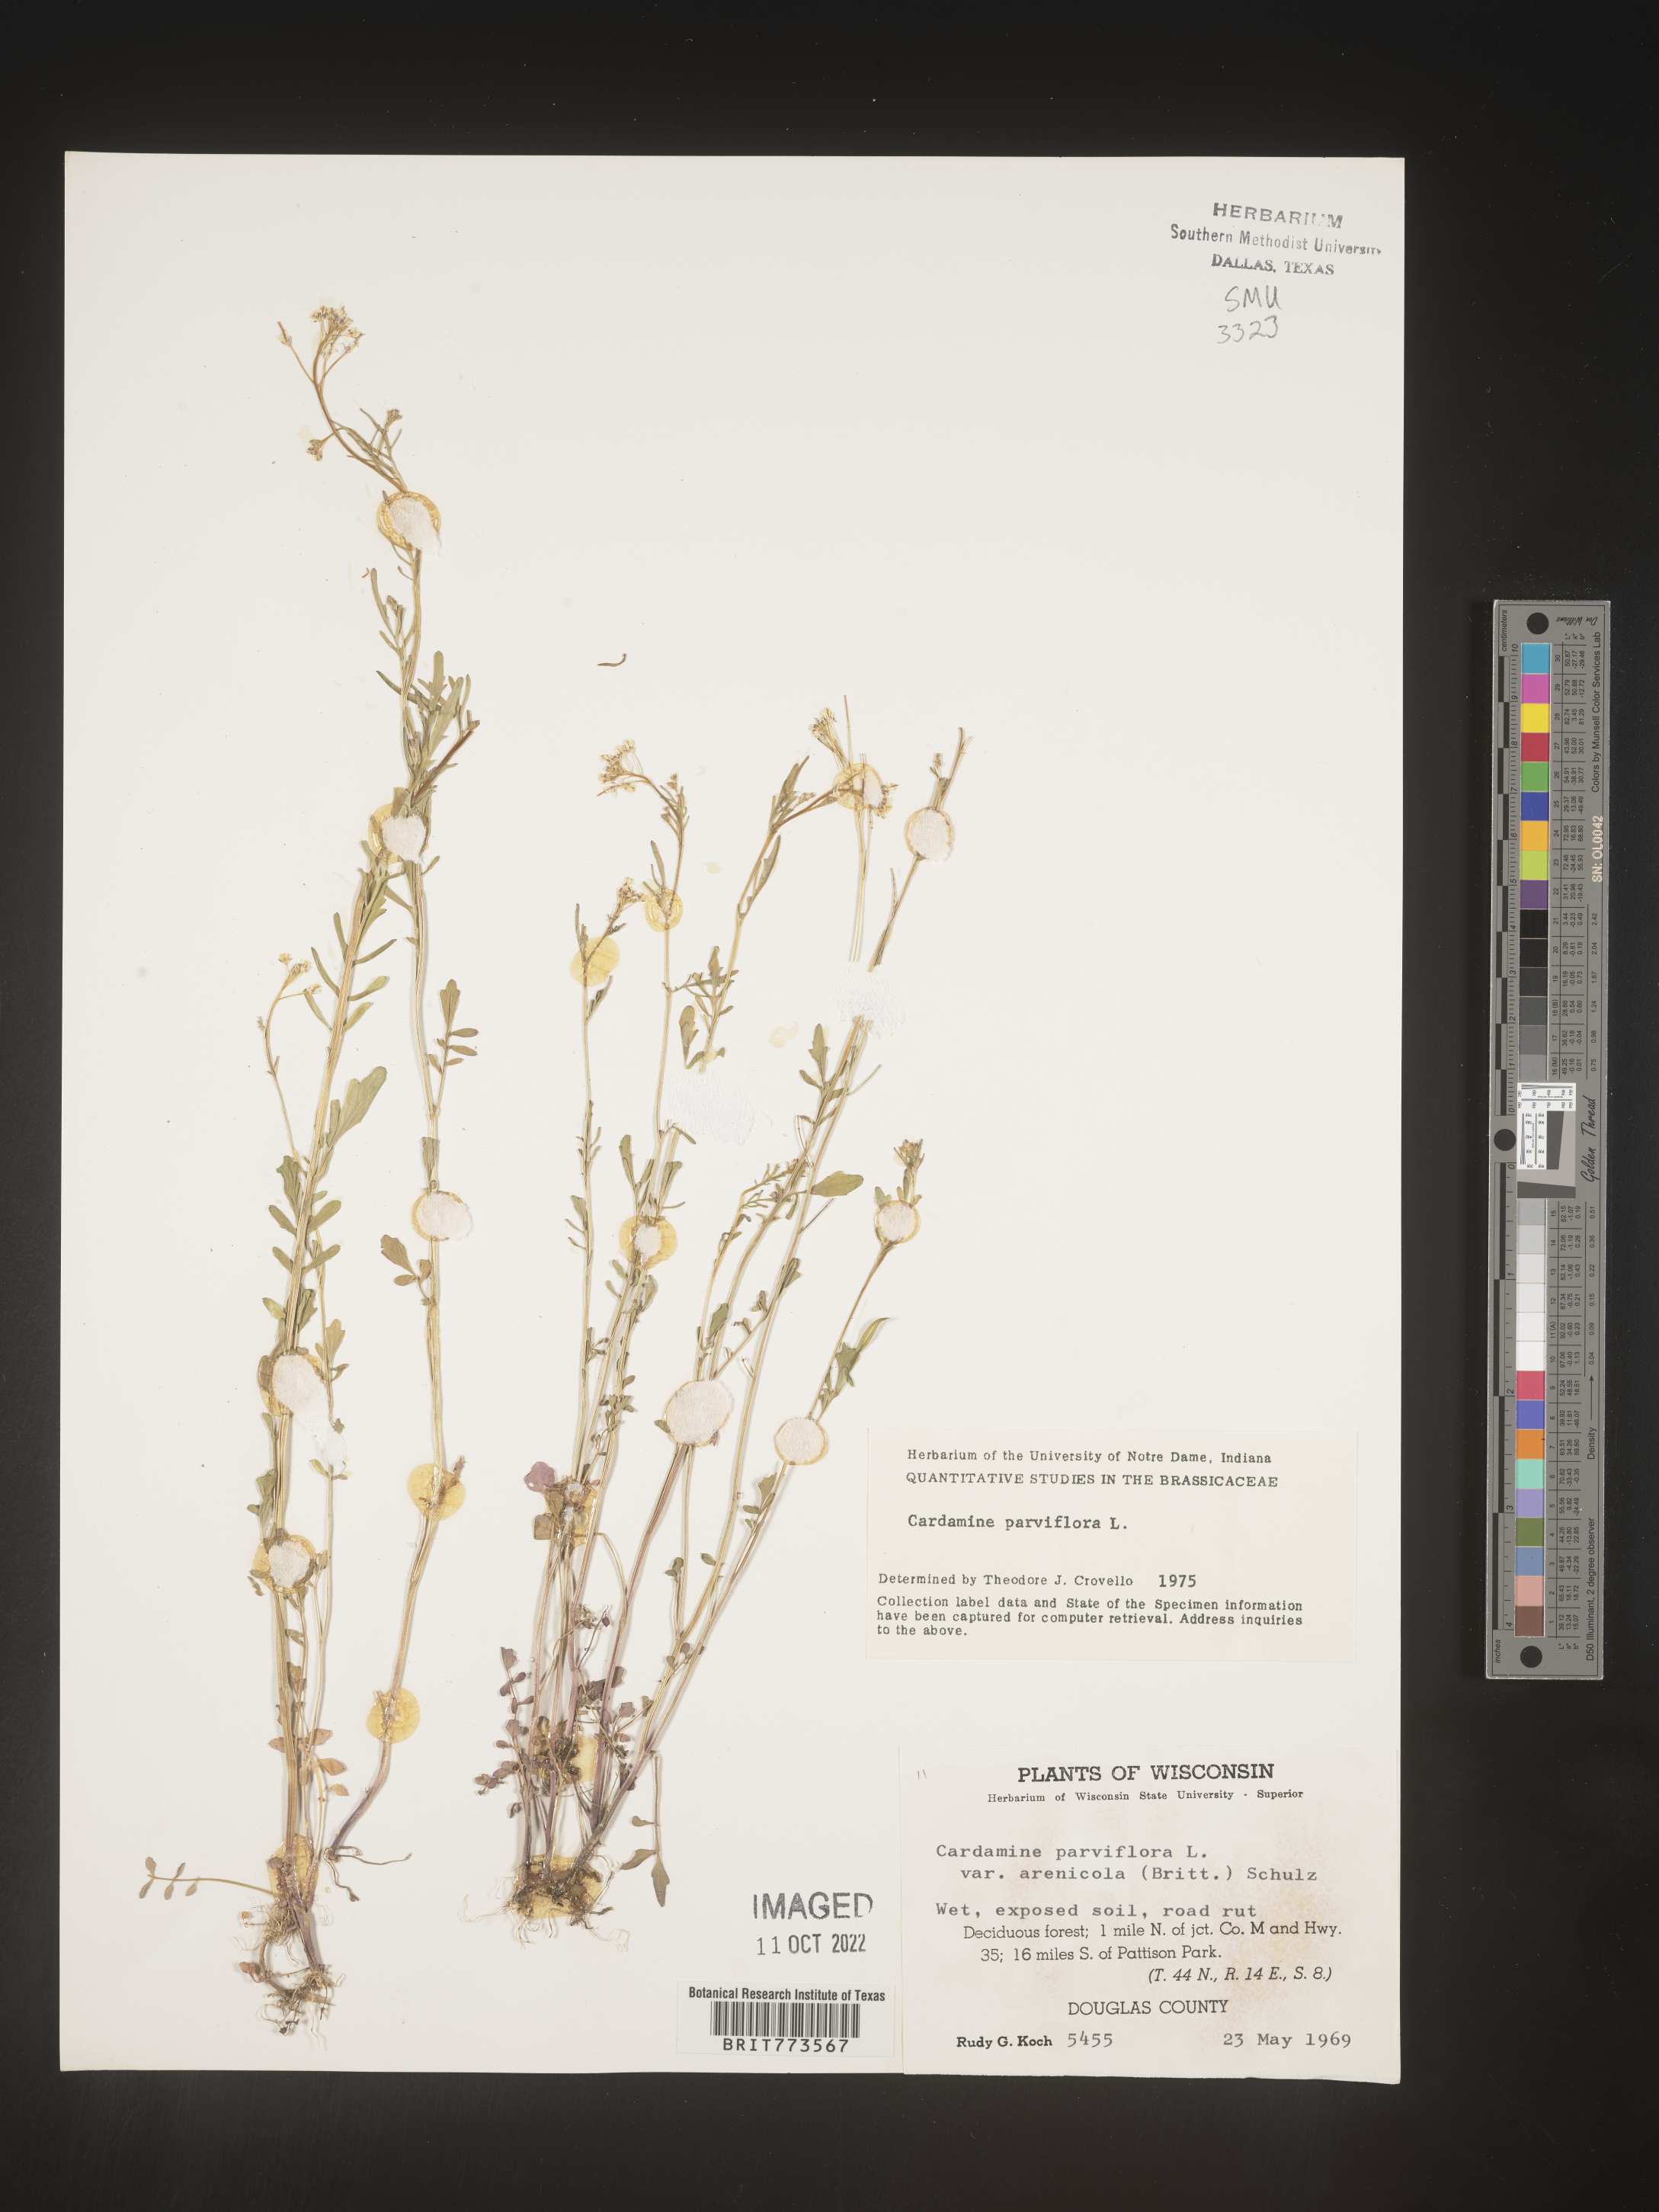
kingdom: Plantae
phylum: Tracheophyta
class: Magnoliopsida
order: Brassicales
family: Brassicaceae
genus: Cardamine
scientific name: Cardamine parviflora
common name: Sand bittercress
